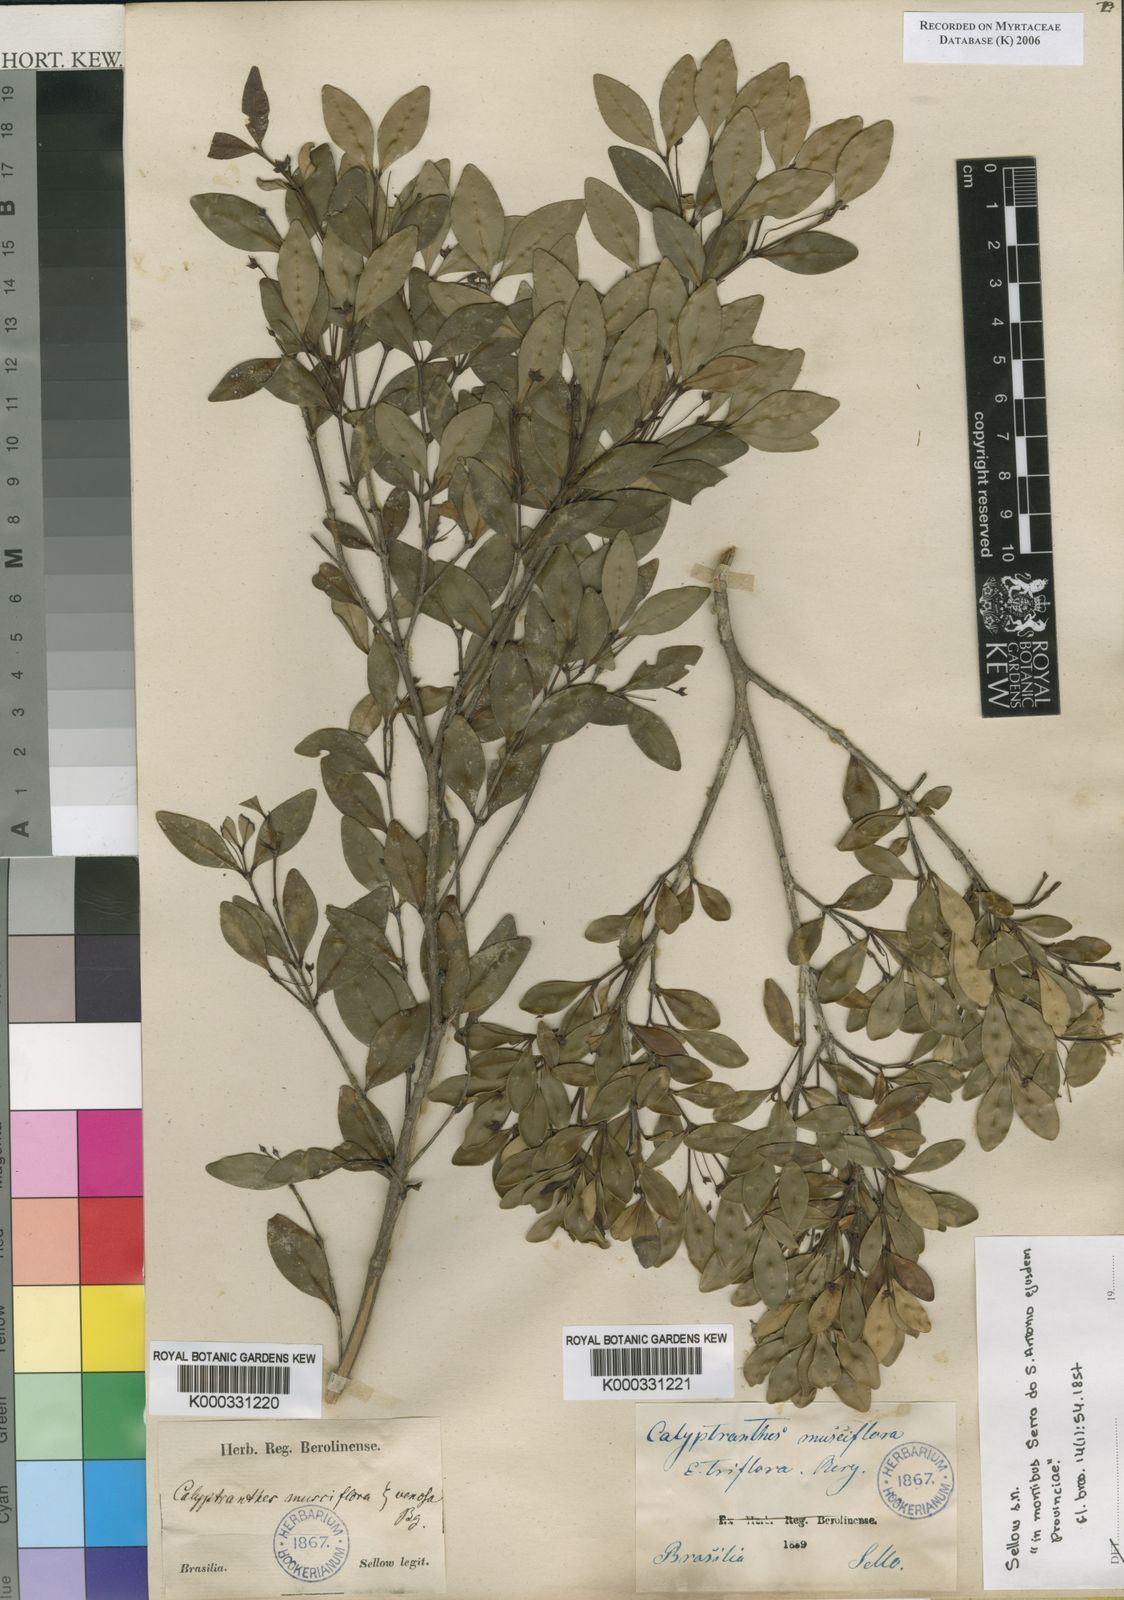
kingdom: Plantae
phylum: Tracheophyta
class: Magnoliopsida
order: Myrtales
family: Myrtaceae
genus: Myrcia
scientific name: Myrcia grammica
